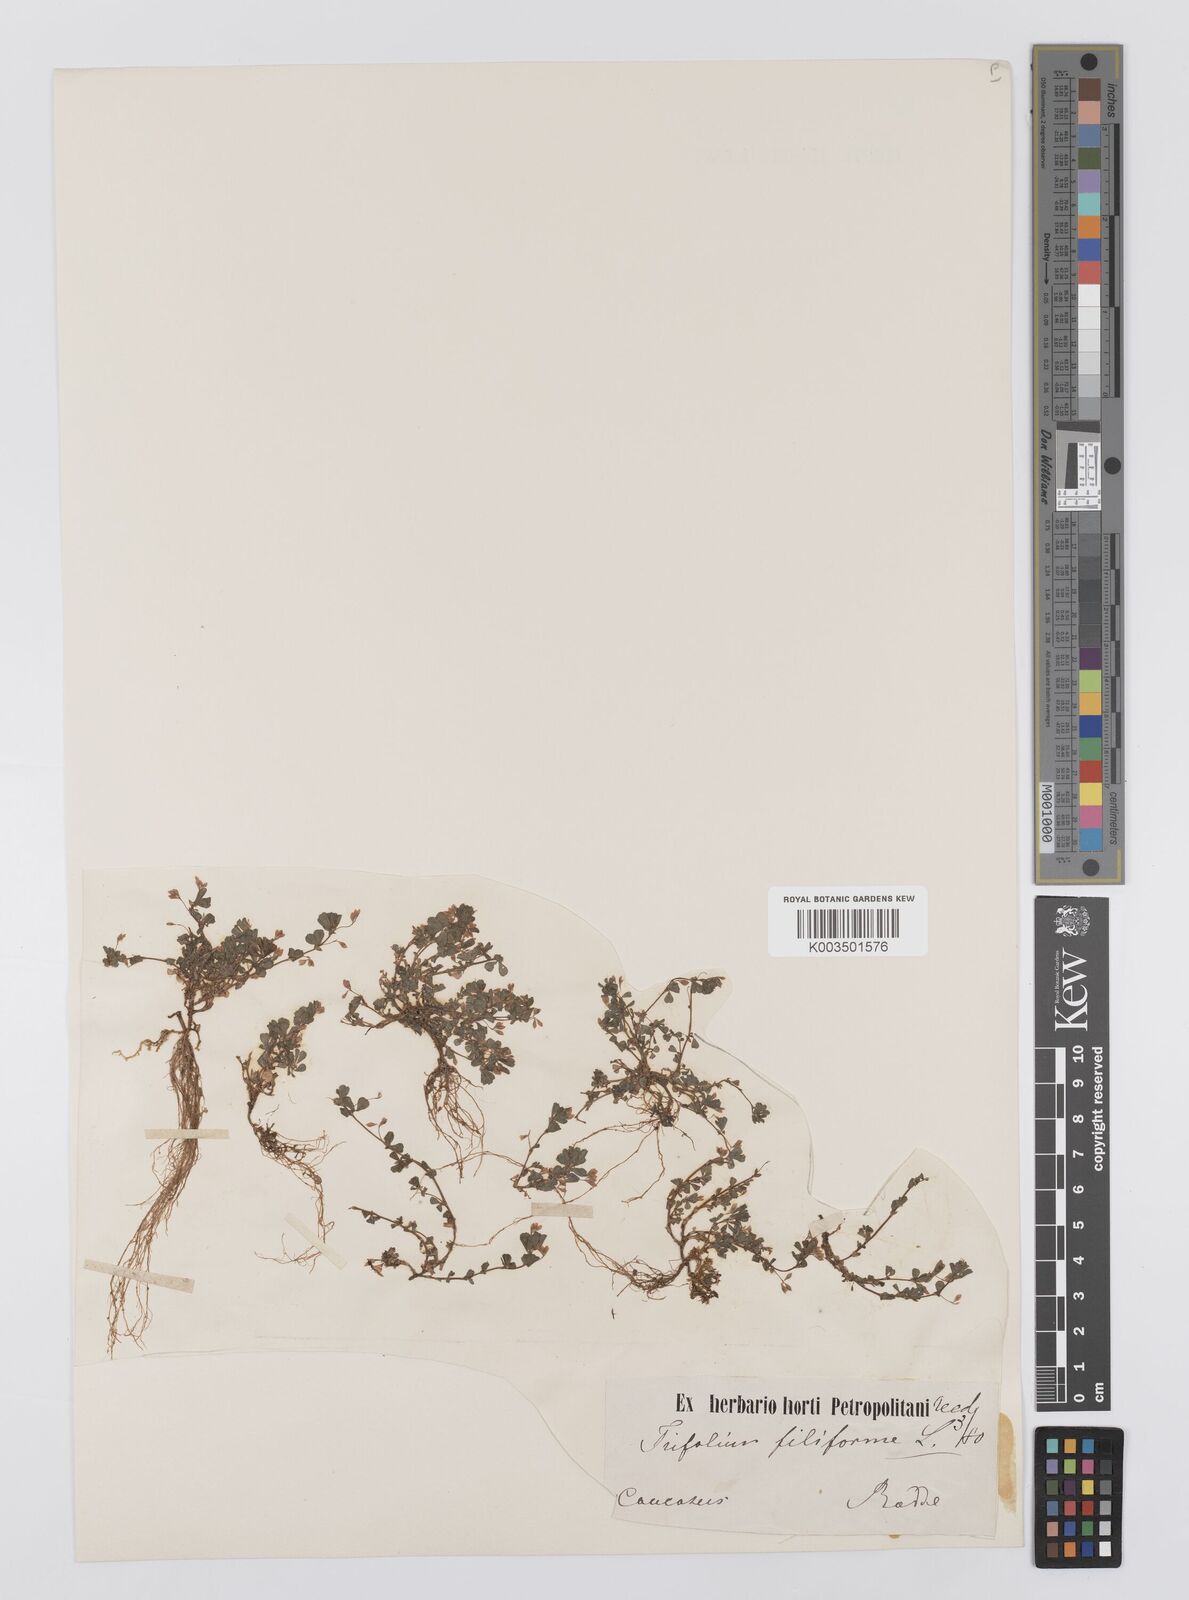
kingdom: Plantae
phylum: Tracheophyta
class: Magnoliopsida
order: Fabales
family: Fabaceae
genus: Trifolium
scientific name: Trifolium micranthum
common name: Slender trefoil
